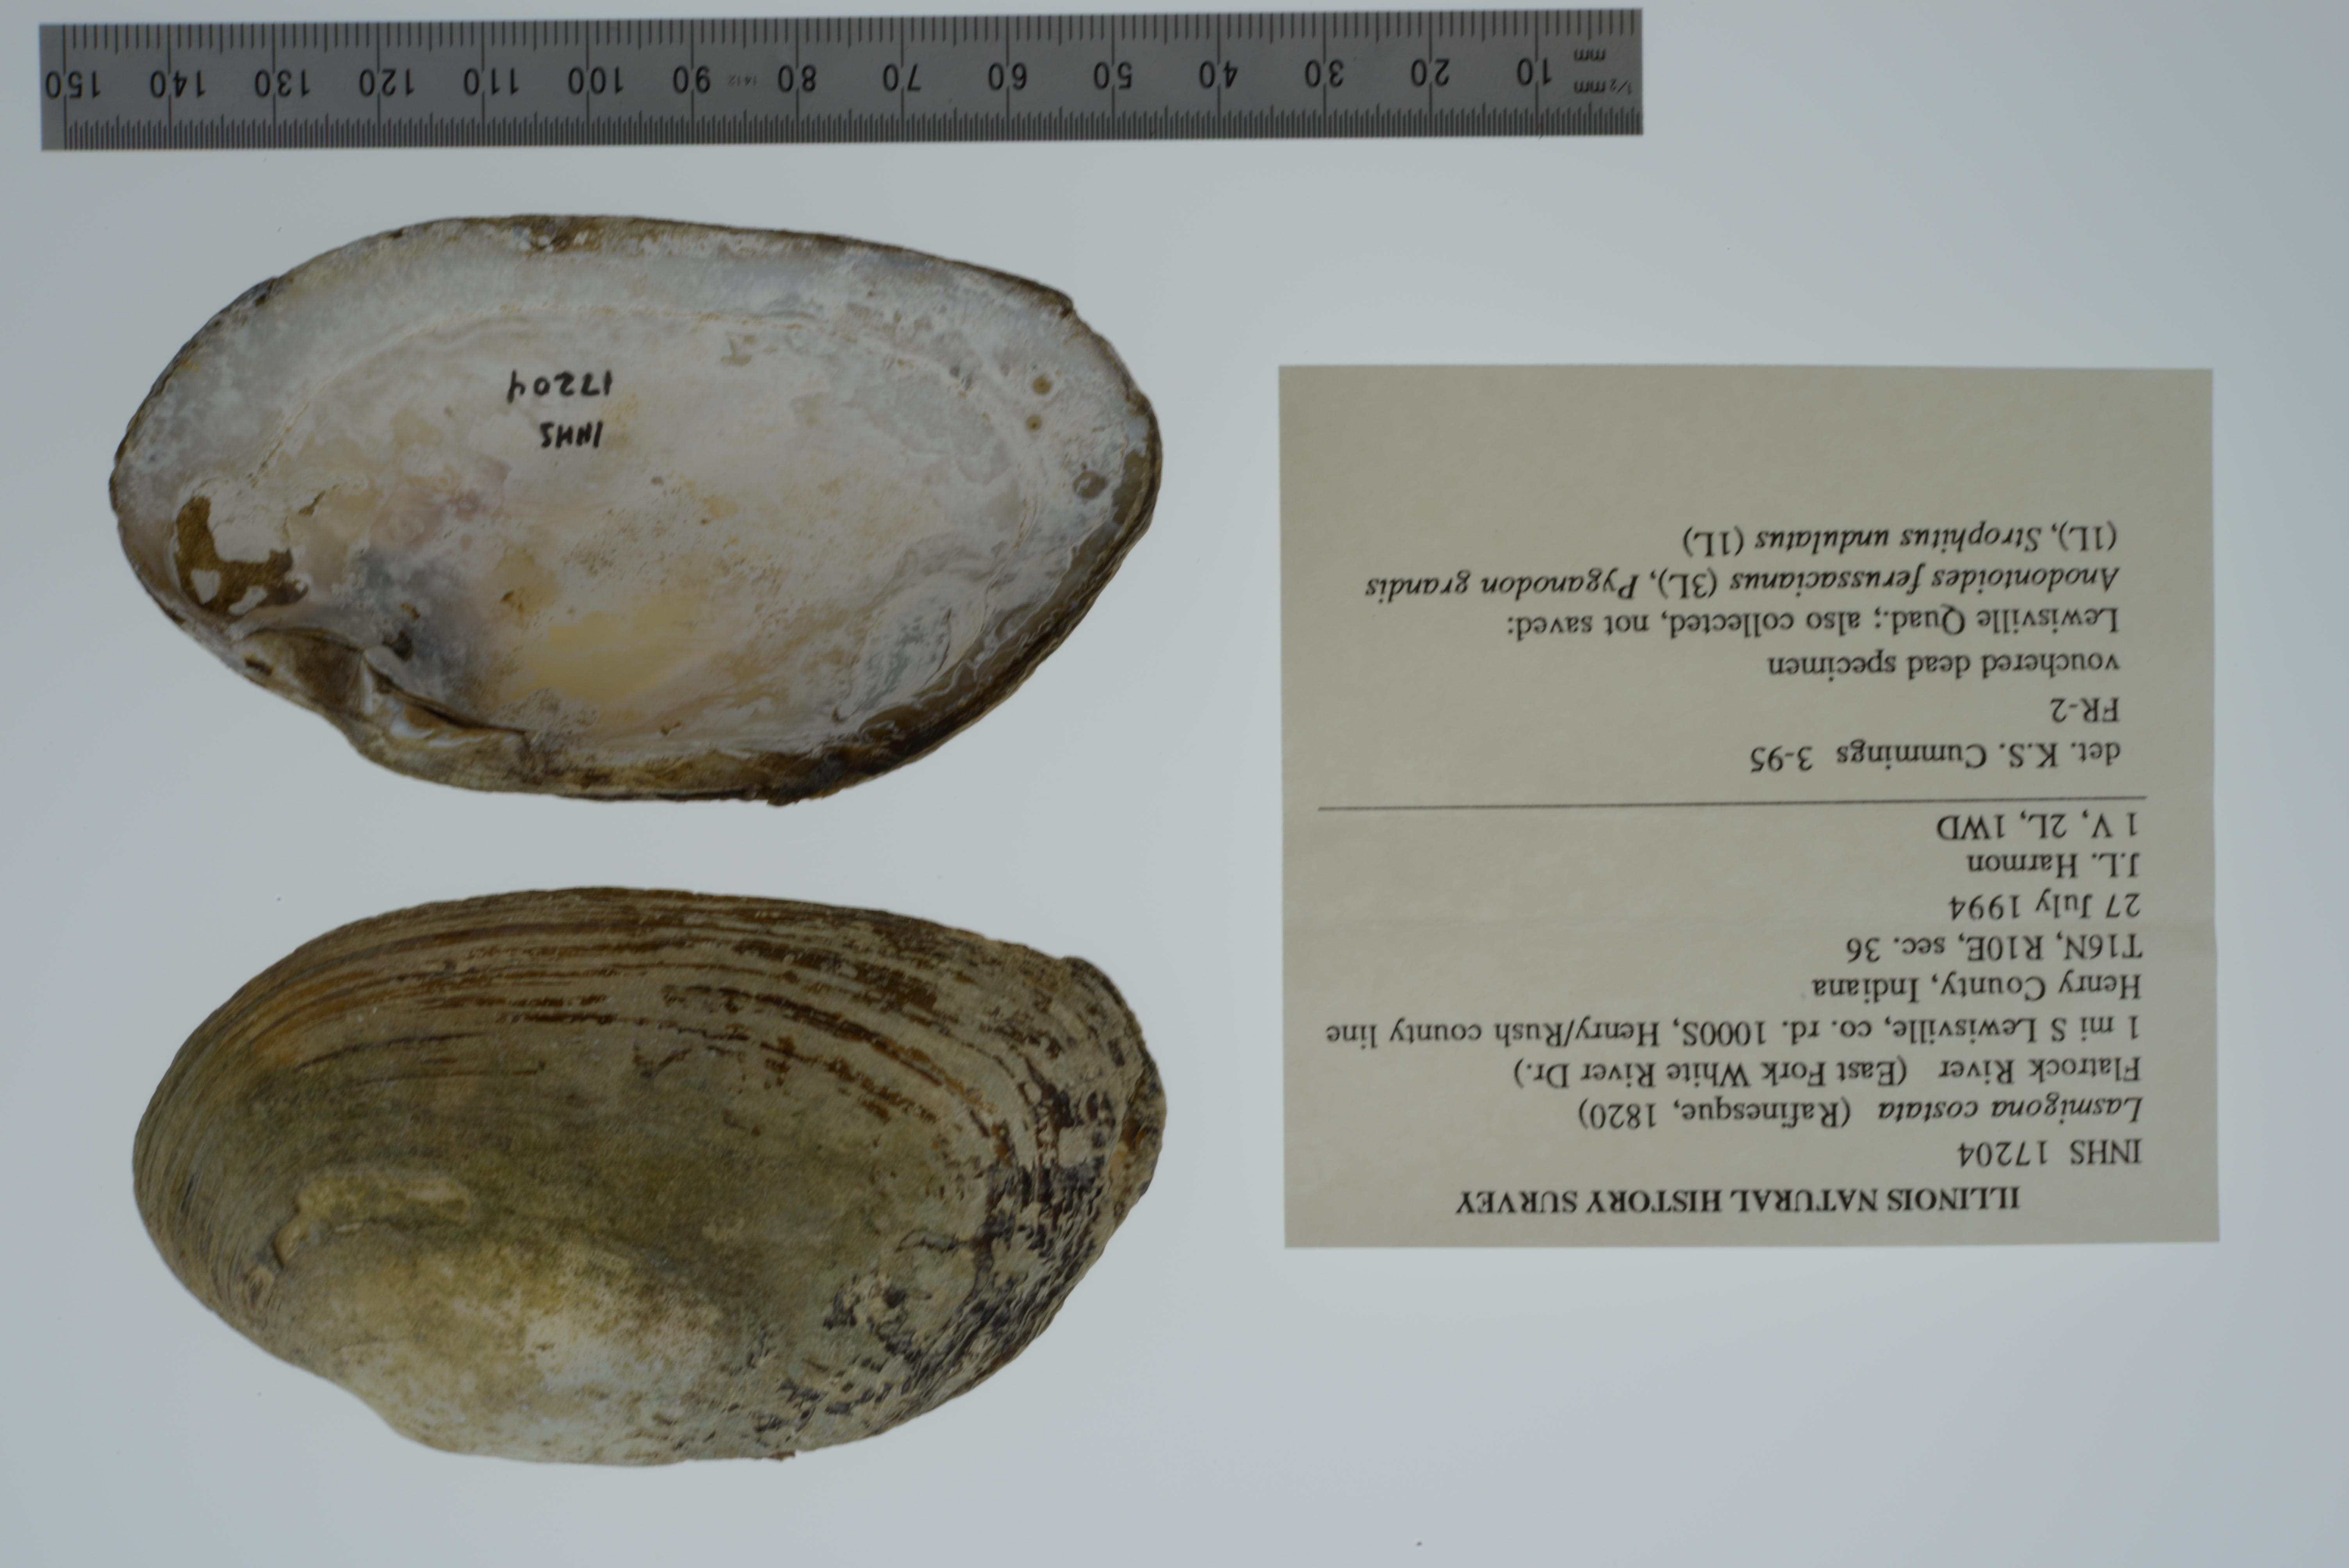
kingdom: Animalia
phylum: Mollusca
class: Bivalvia
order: Unionida
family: Unionidae
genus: Lasmigona
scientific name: Lasmigona costata
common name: Flutedshell
